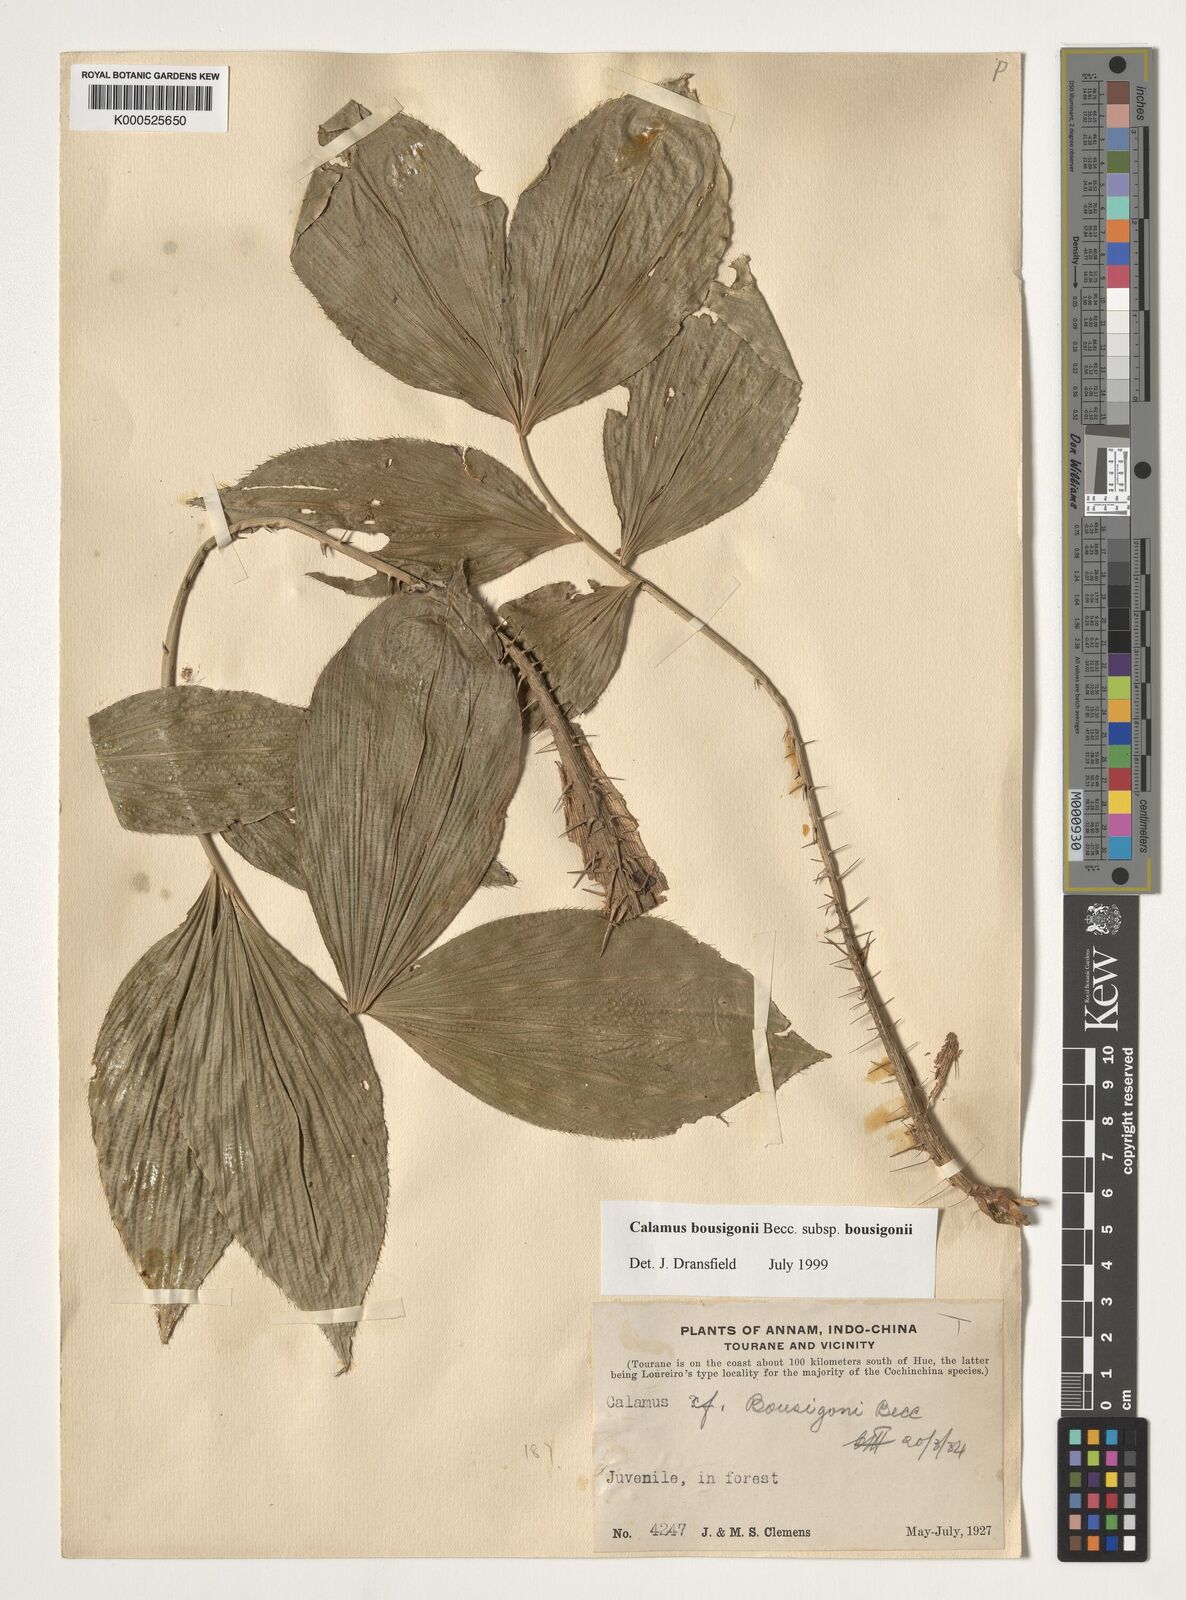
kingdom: Plantae
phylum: Tracheophyta
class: Liliopsida
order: Arecales
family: Arecaceae
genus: Calamus
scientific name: Calamus bousigonii
